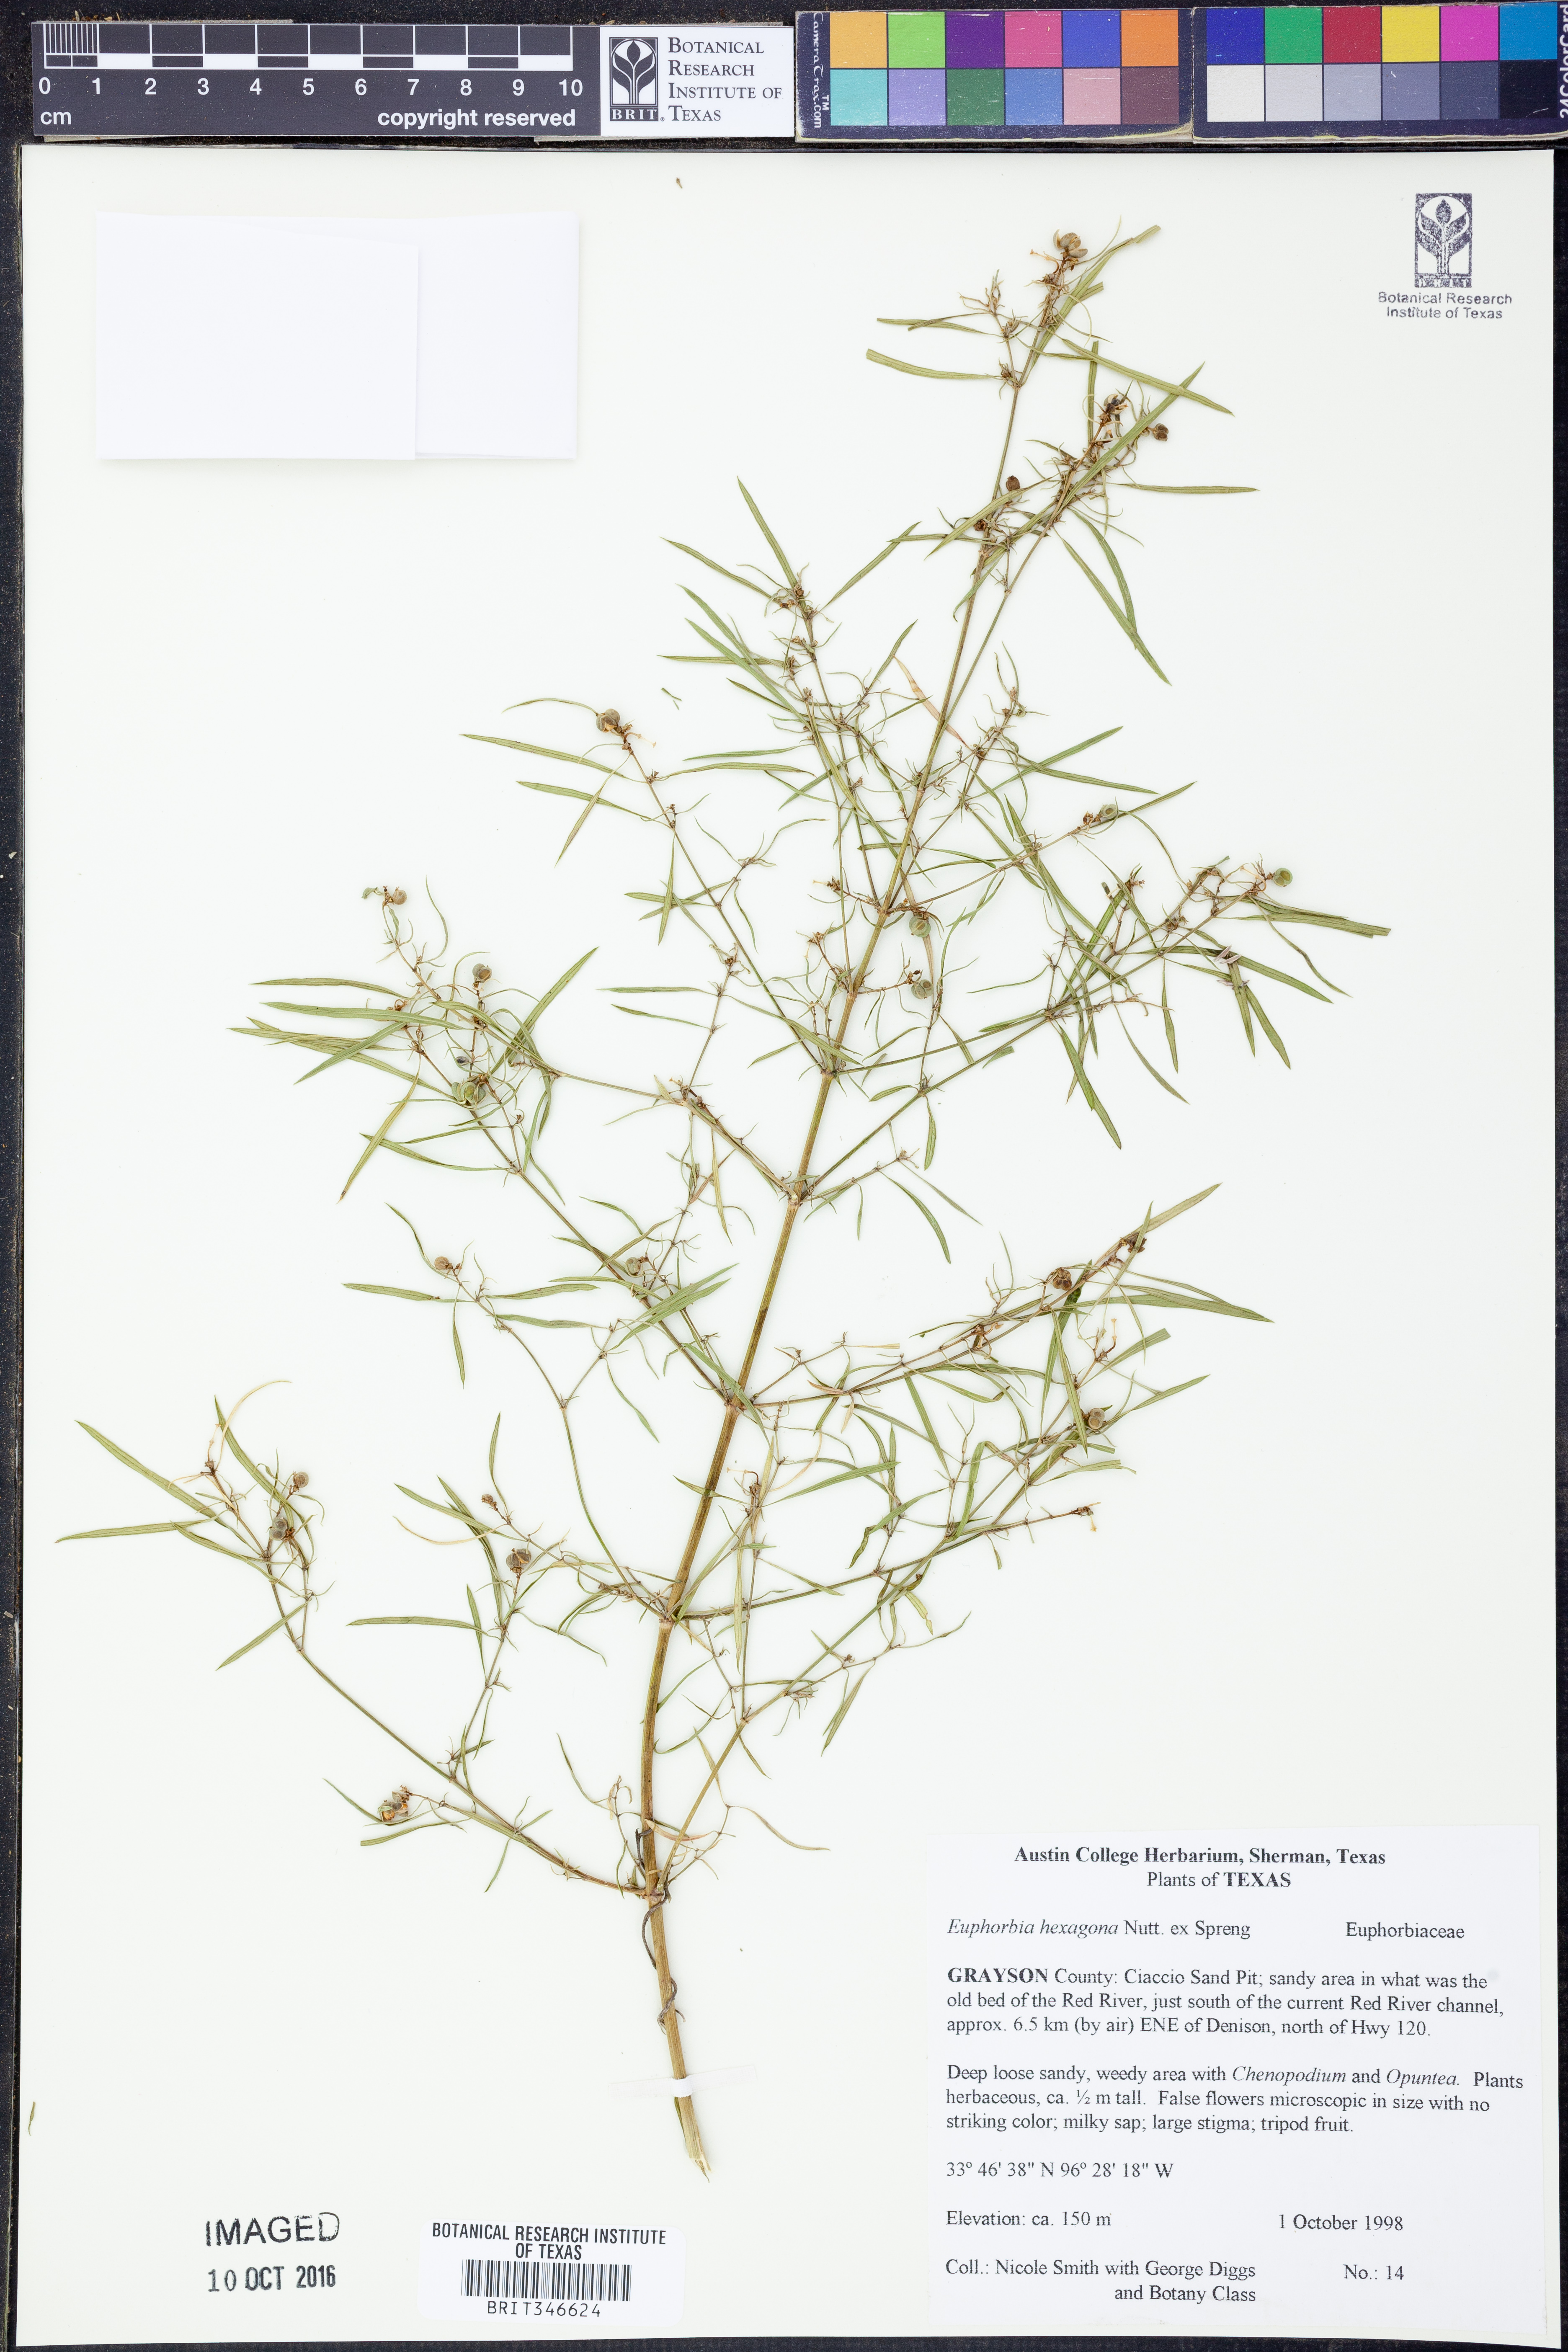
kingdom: Plantae
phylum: Tracheophyta
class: Magnoliopsida
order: Malpighiales
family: Euphorbiaceae
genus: Euphorbia
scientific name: Euphorbia hexagona
